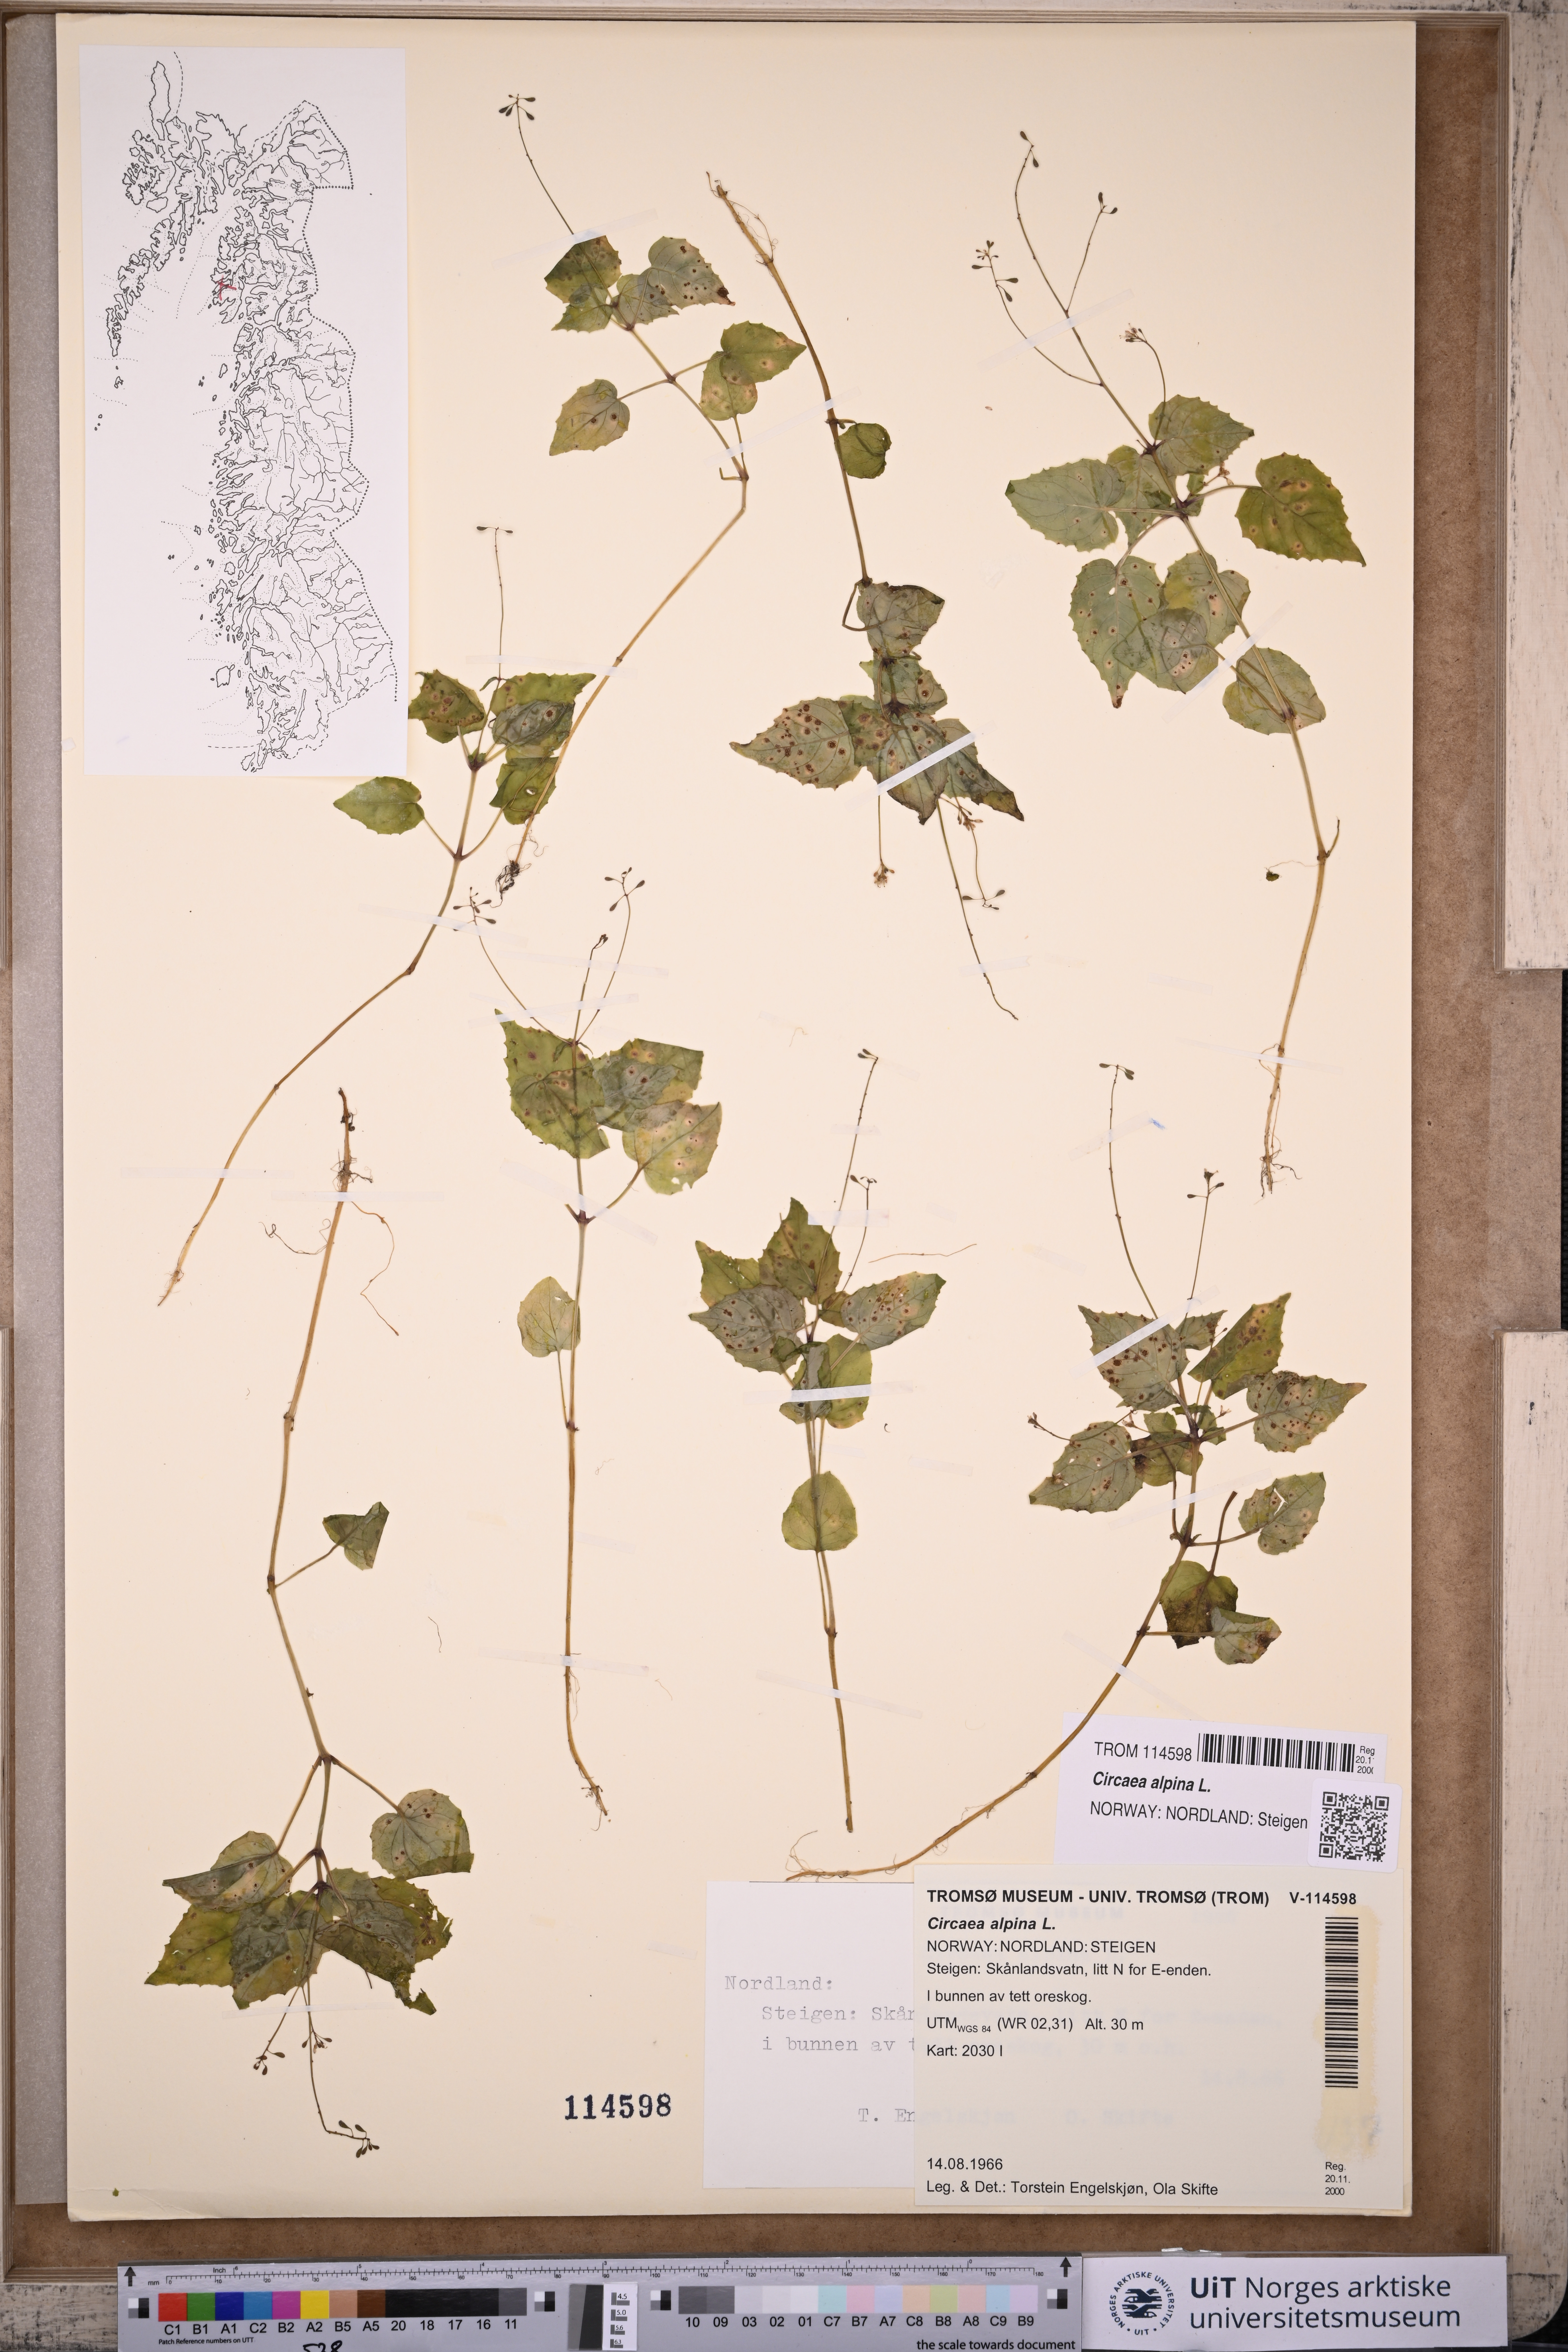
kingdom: Plantae
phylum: Tracheophyta
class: Magnoliopsida
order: Myrtales
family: Onagraceae
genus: Circaea
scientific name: Circaea alpina
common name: Alpine enchanter's-nightshade
